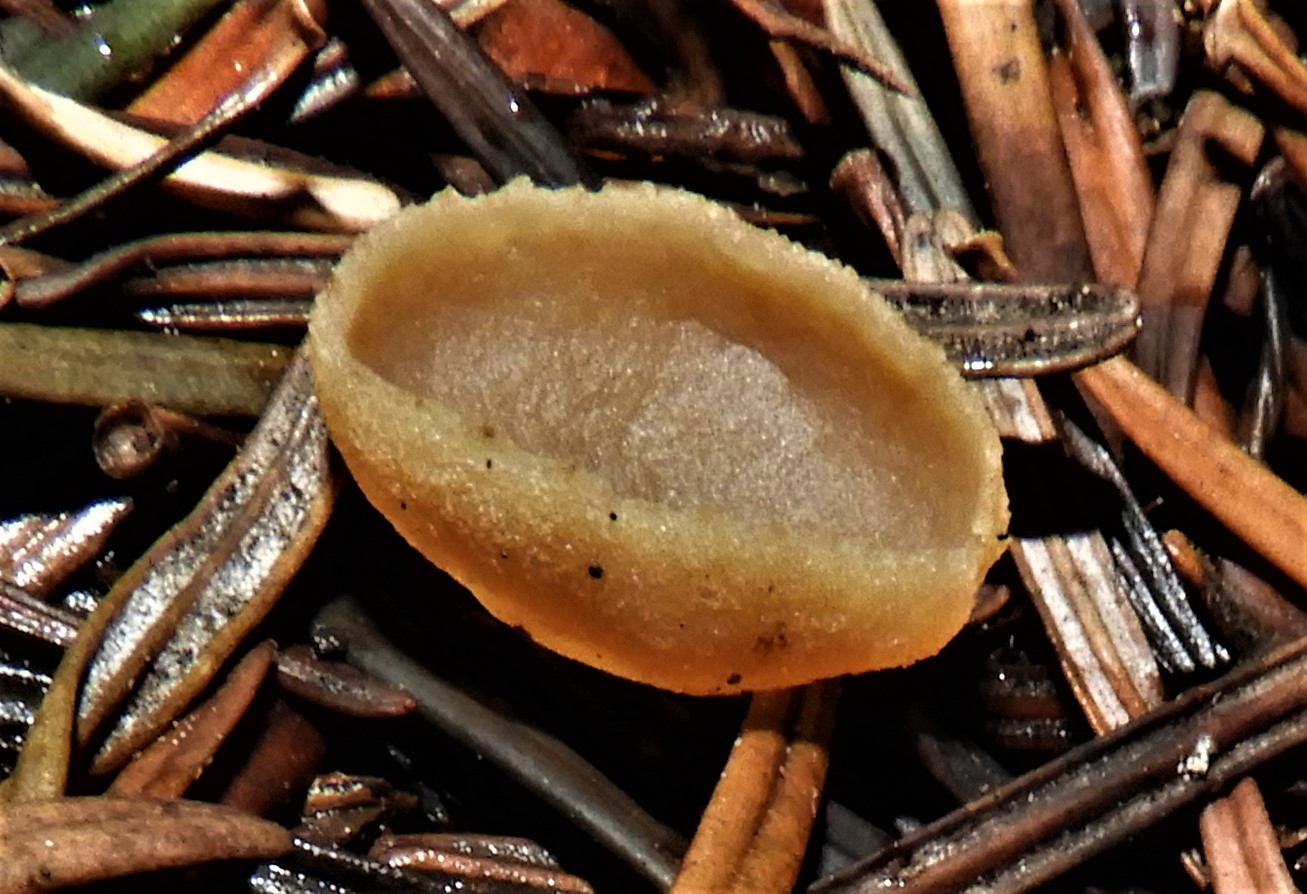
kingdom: Fungi
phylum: Ascomycota
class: Pezizomycetes
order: Pezizales
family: Pezizaceae
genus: Peziza
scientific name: Peziza
